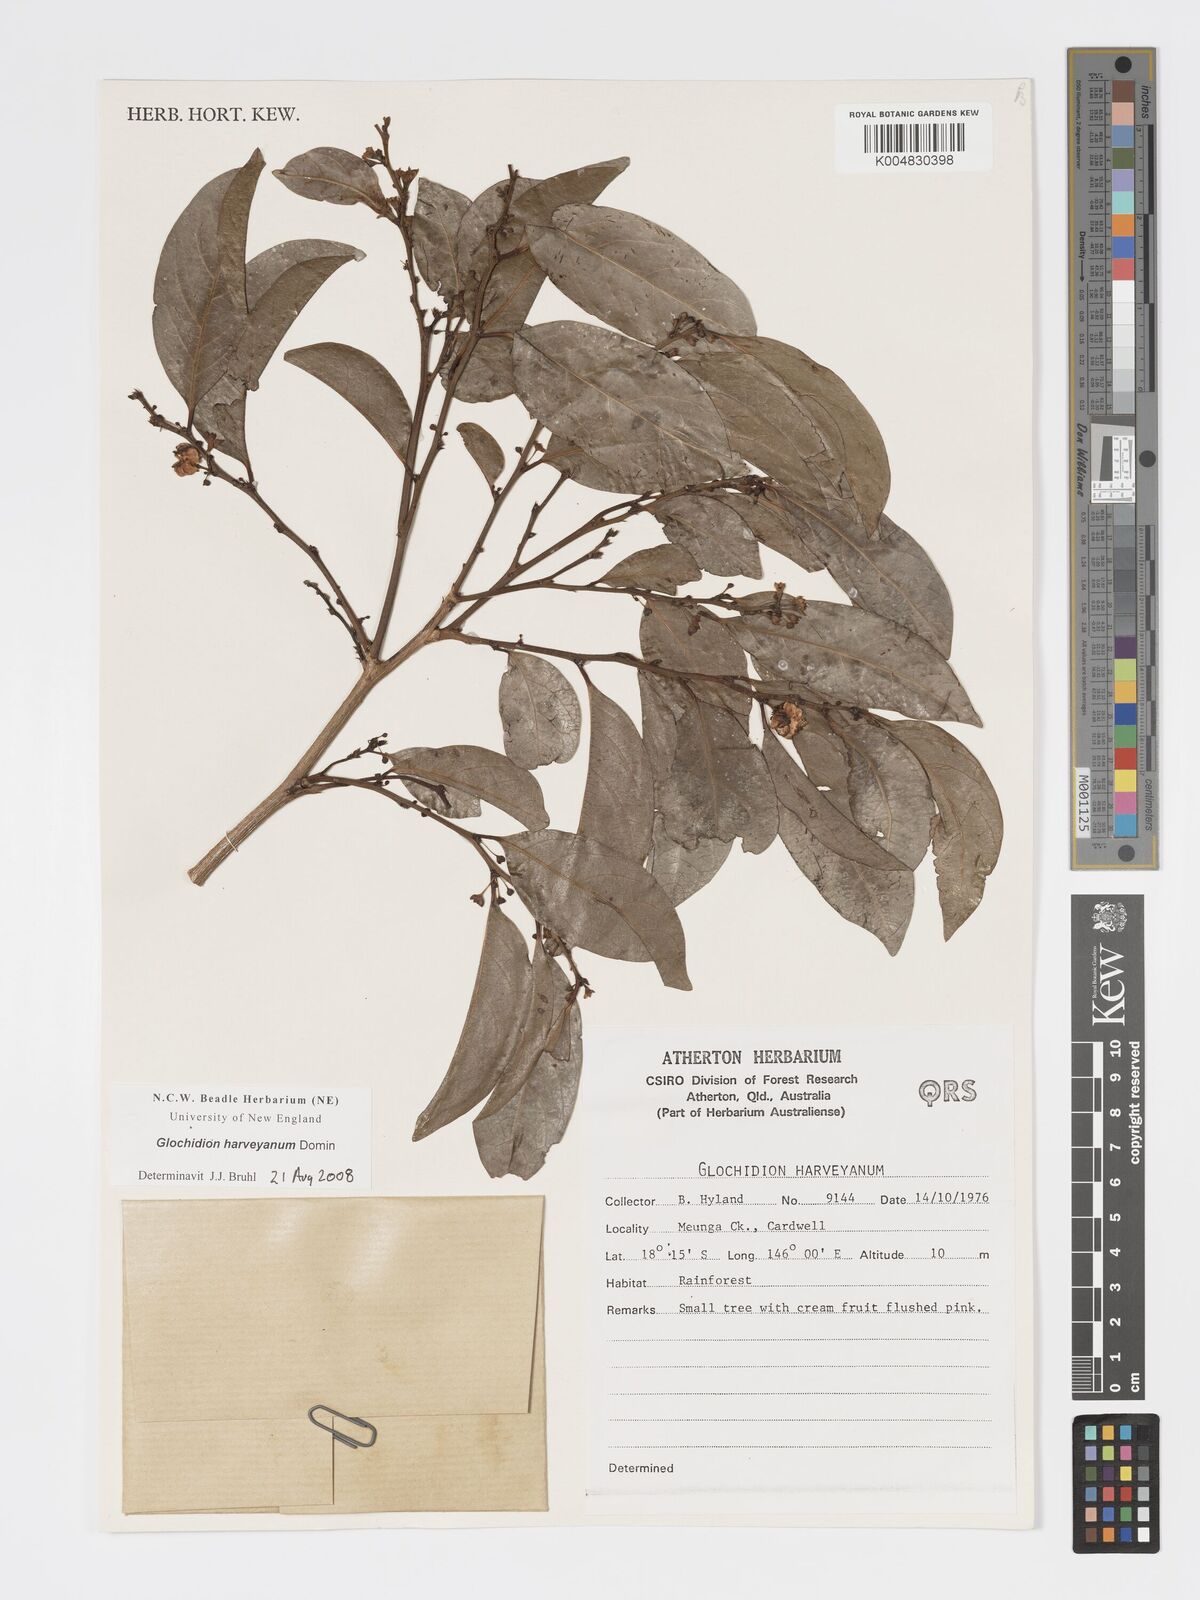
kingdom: Plantae
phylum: Tracheophyta
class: Magnoliopsida
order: Malpighiales
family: Phyllanthaceae
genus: Glochidion
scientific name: Glochidion harveyanum
